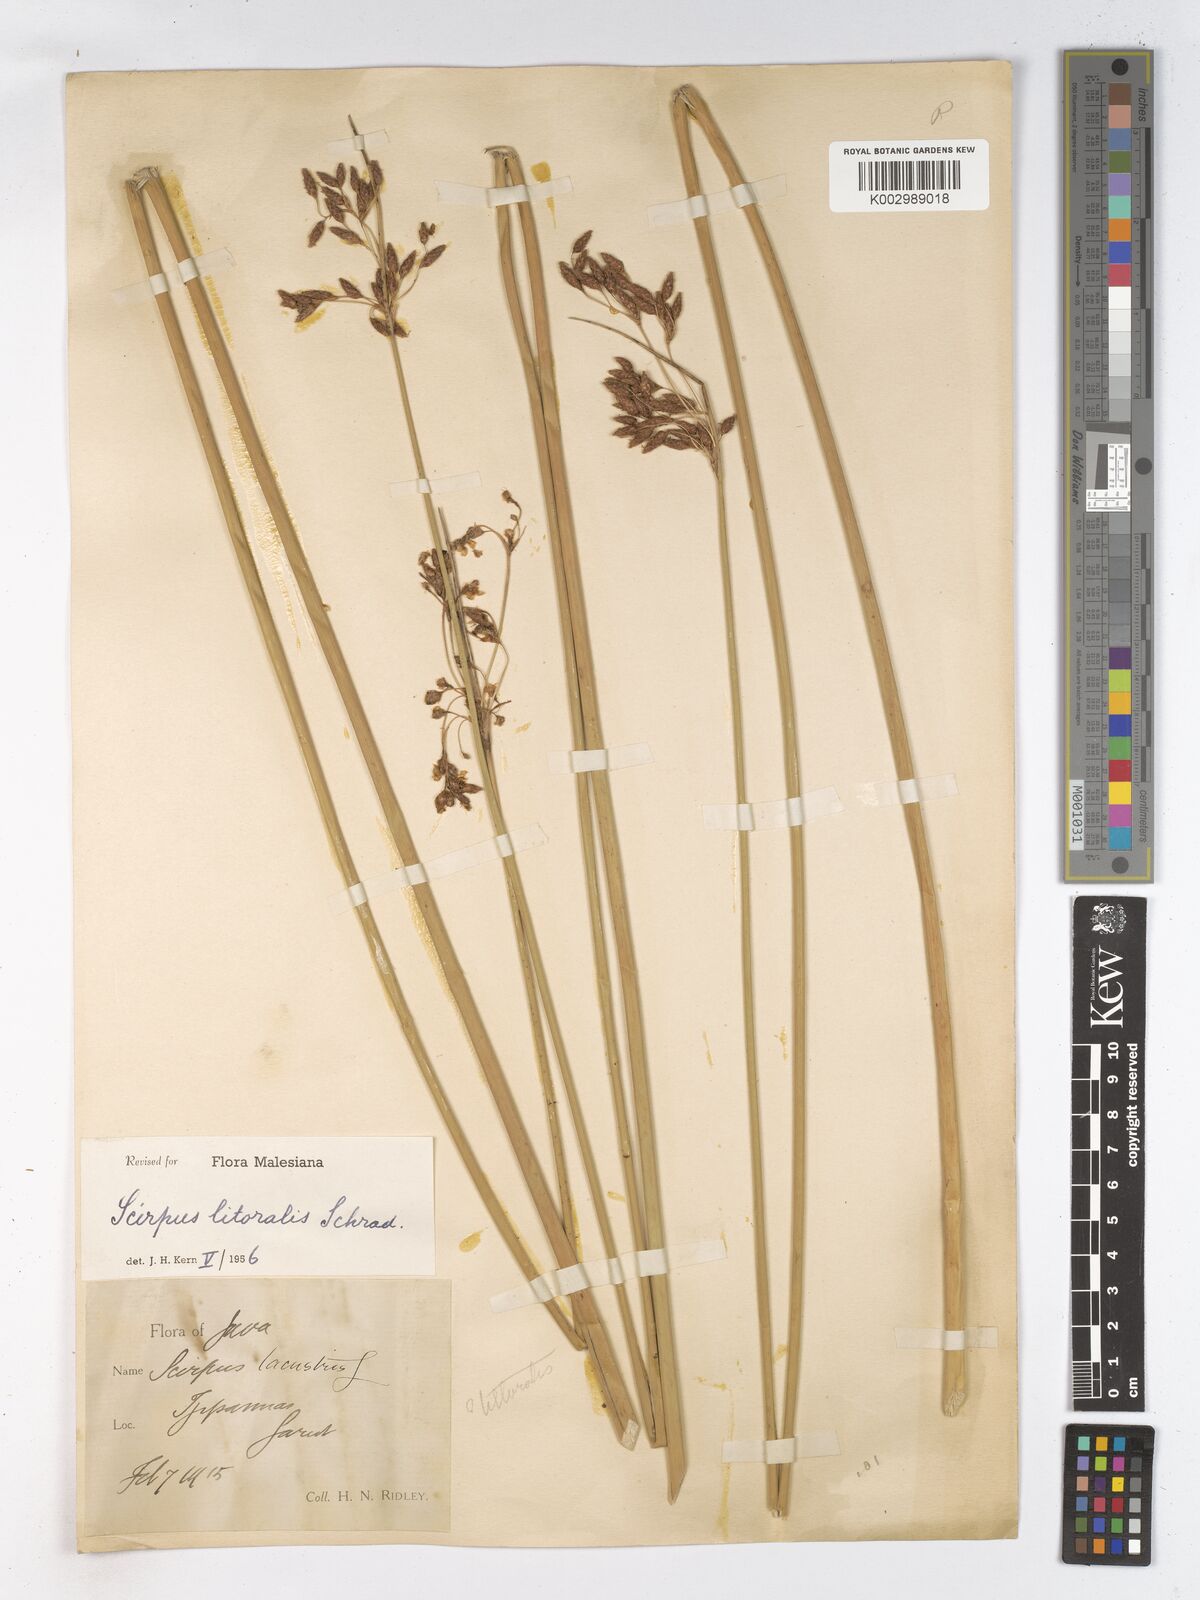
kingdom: Plantae
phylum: Tracheophyta
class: Liliopsida
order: Poales
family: Cyperaceae
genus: Schoenoplectus
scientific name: Schoenoplectus litoralis
